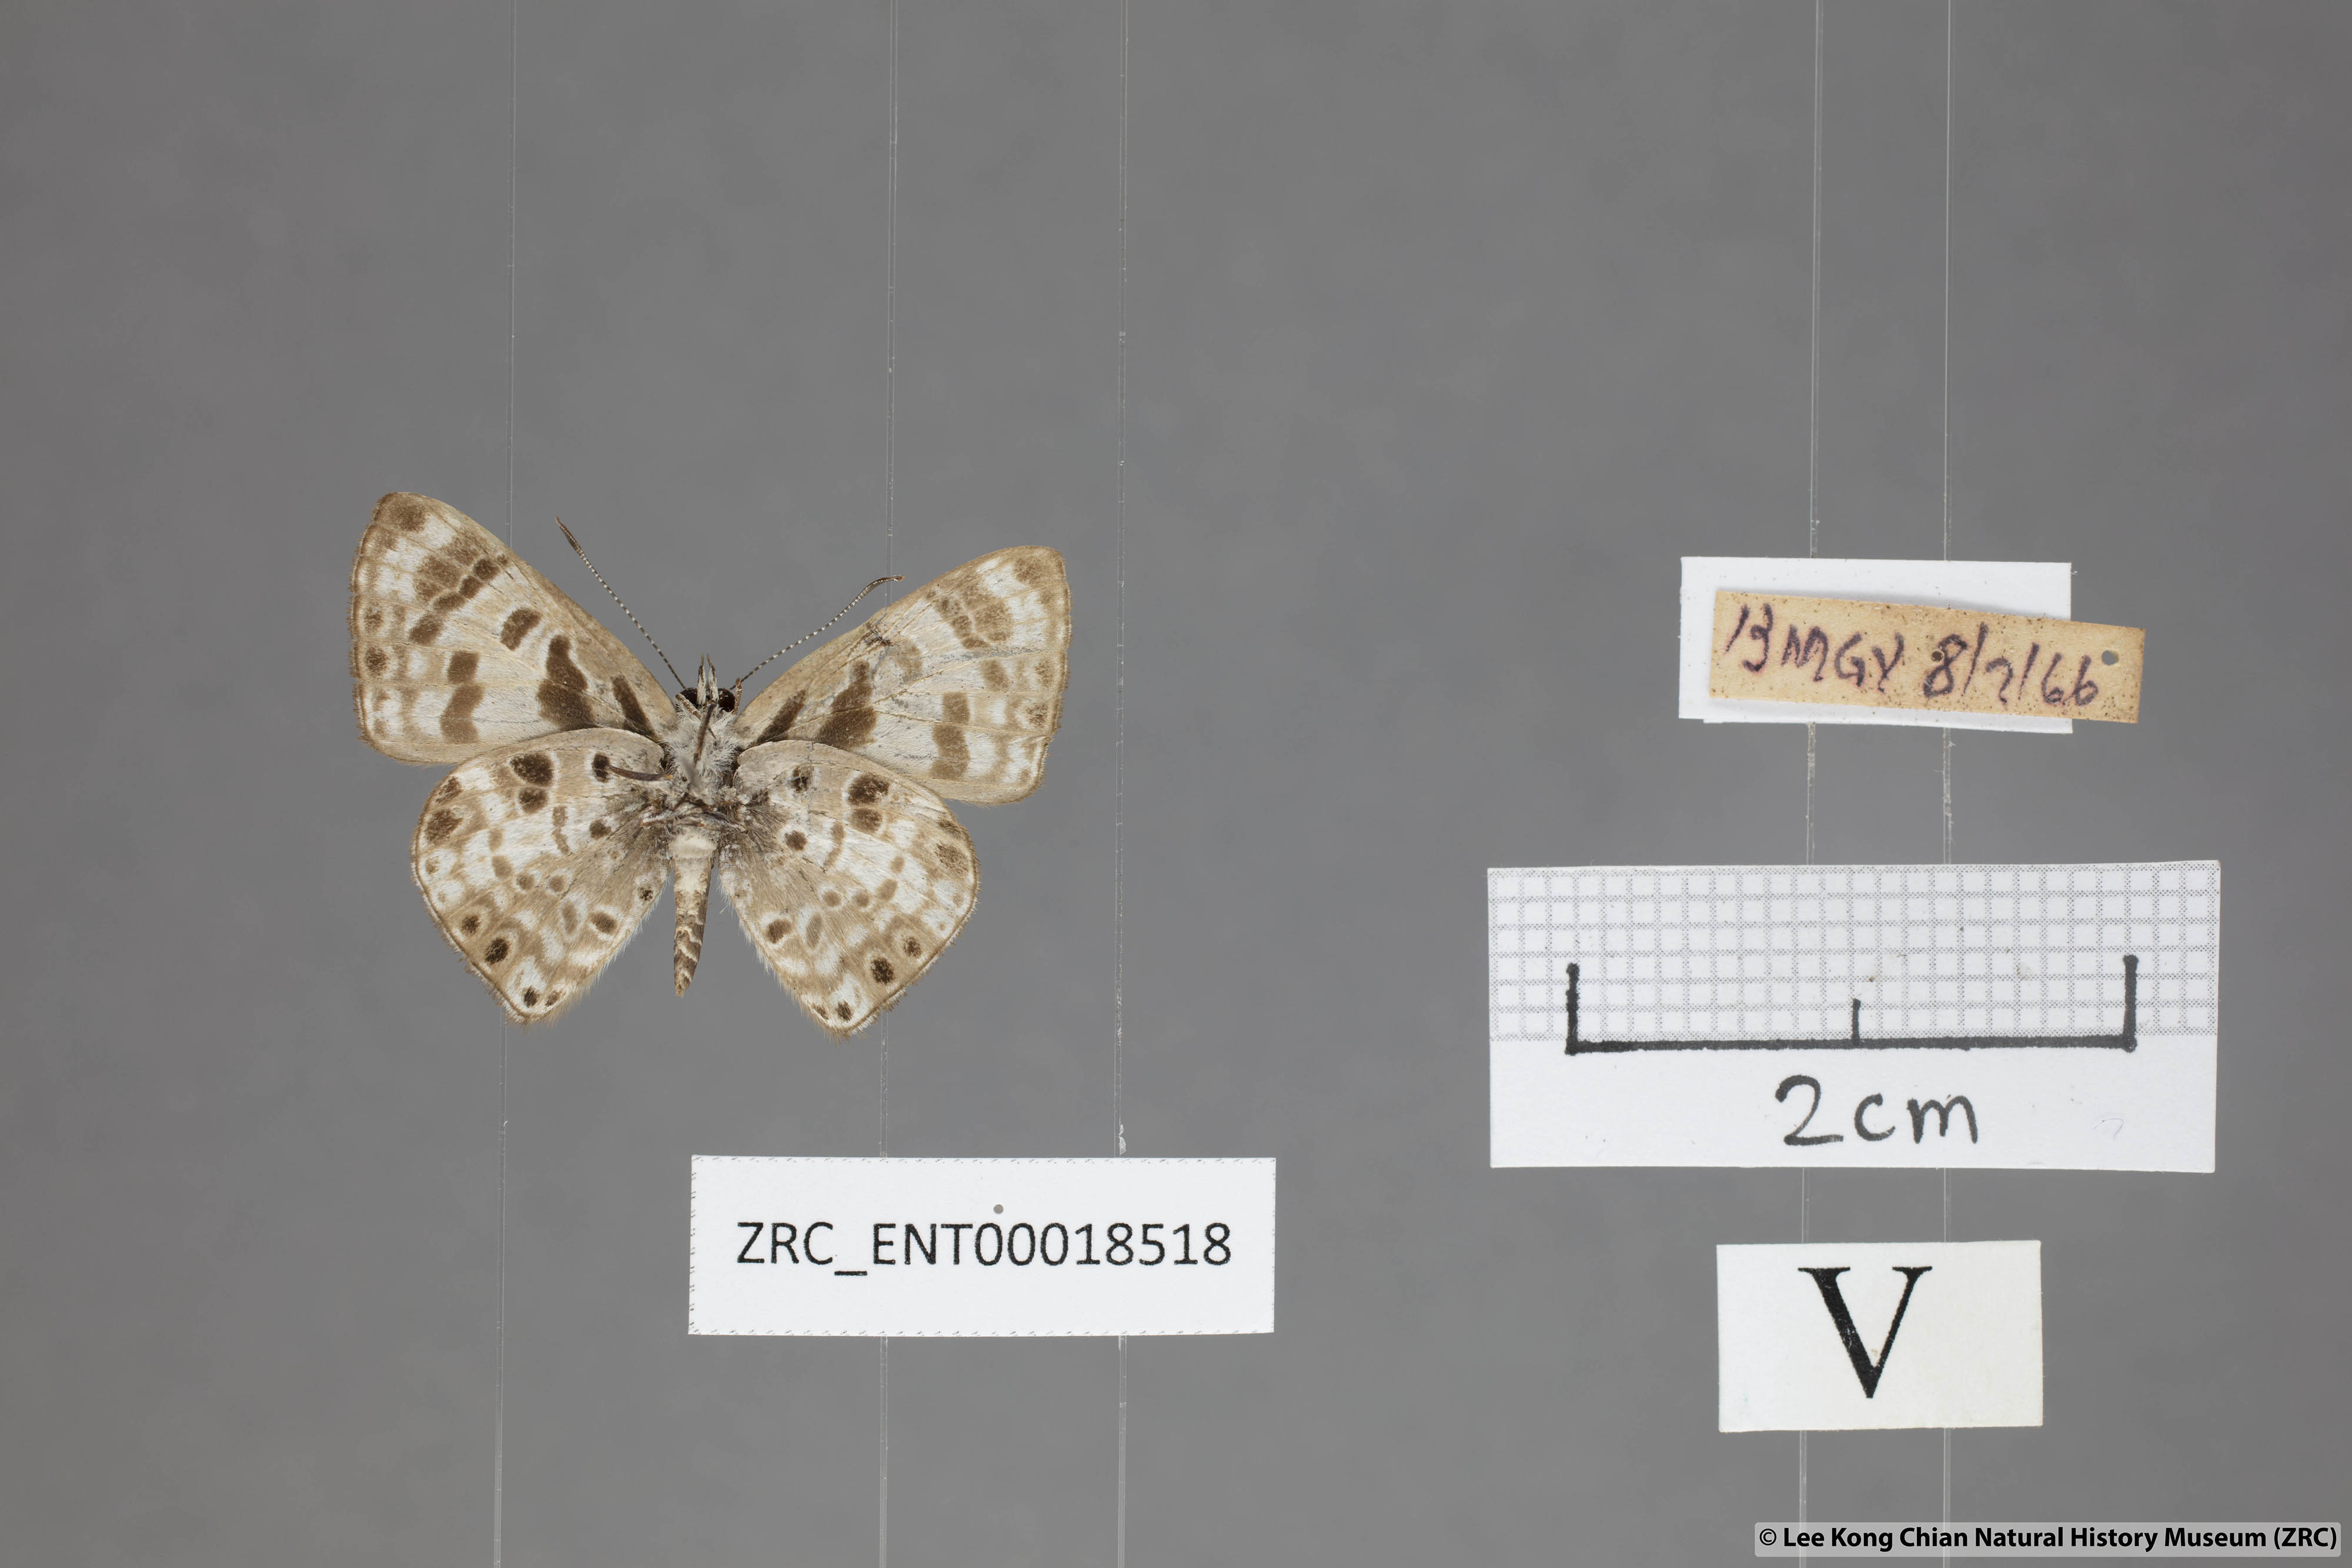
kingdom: Animalia
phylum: Arthropoda
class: Insecta
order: Lepidoptera
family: Lycaenidae
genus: Niphanda
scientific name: Niphanda cymbia
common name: Small pointed pierrot
